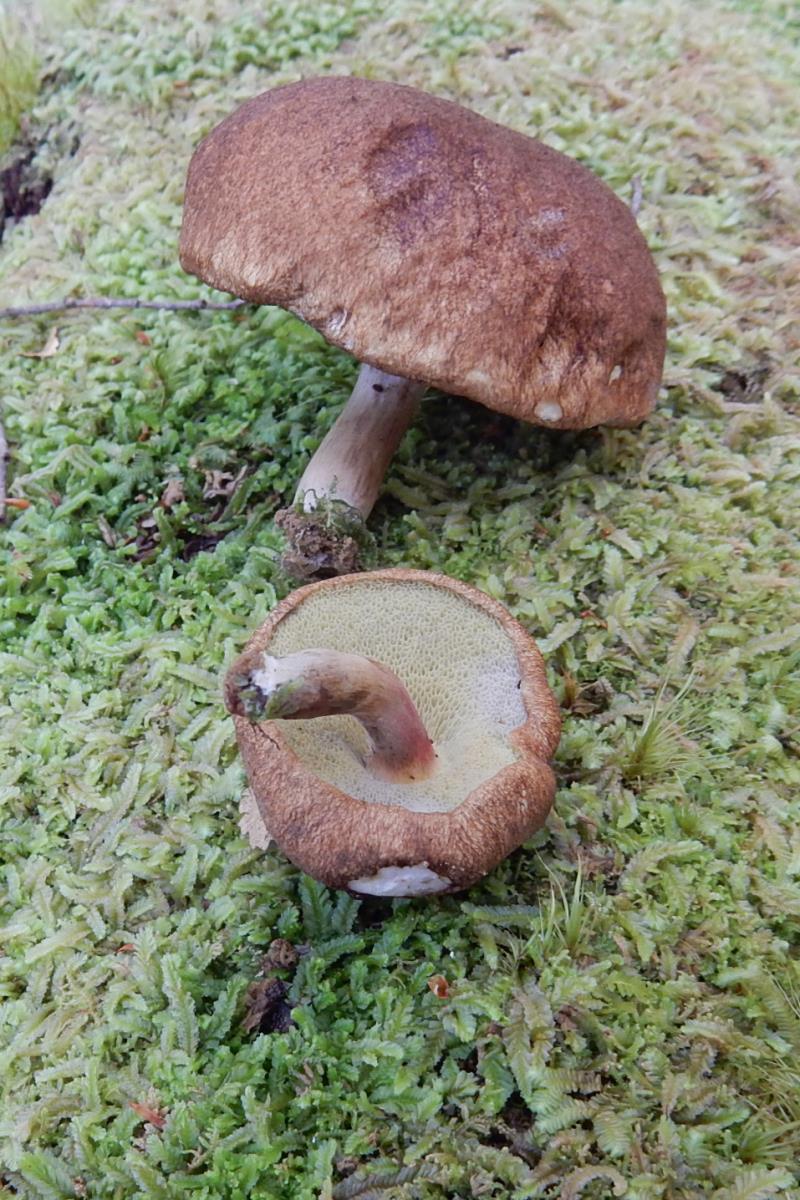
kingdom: Fungi
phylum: Basidiomycota
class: Agaricomycetes
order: Boletales
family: Boletaceae
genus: Xerocomus
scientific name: Xerocomus squamulosus
